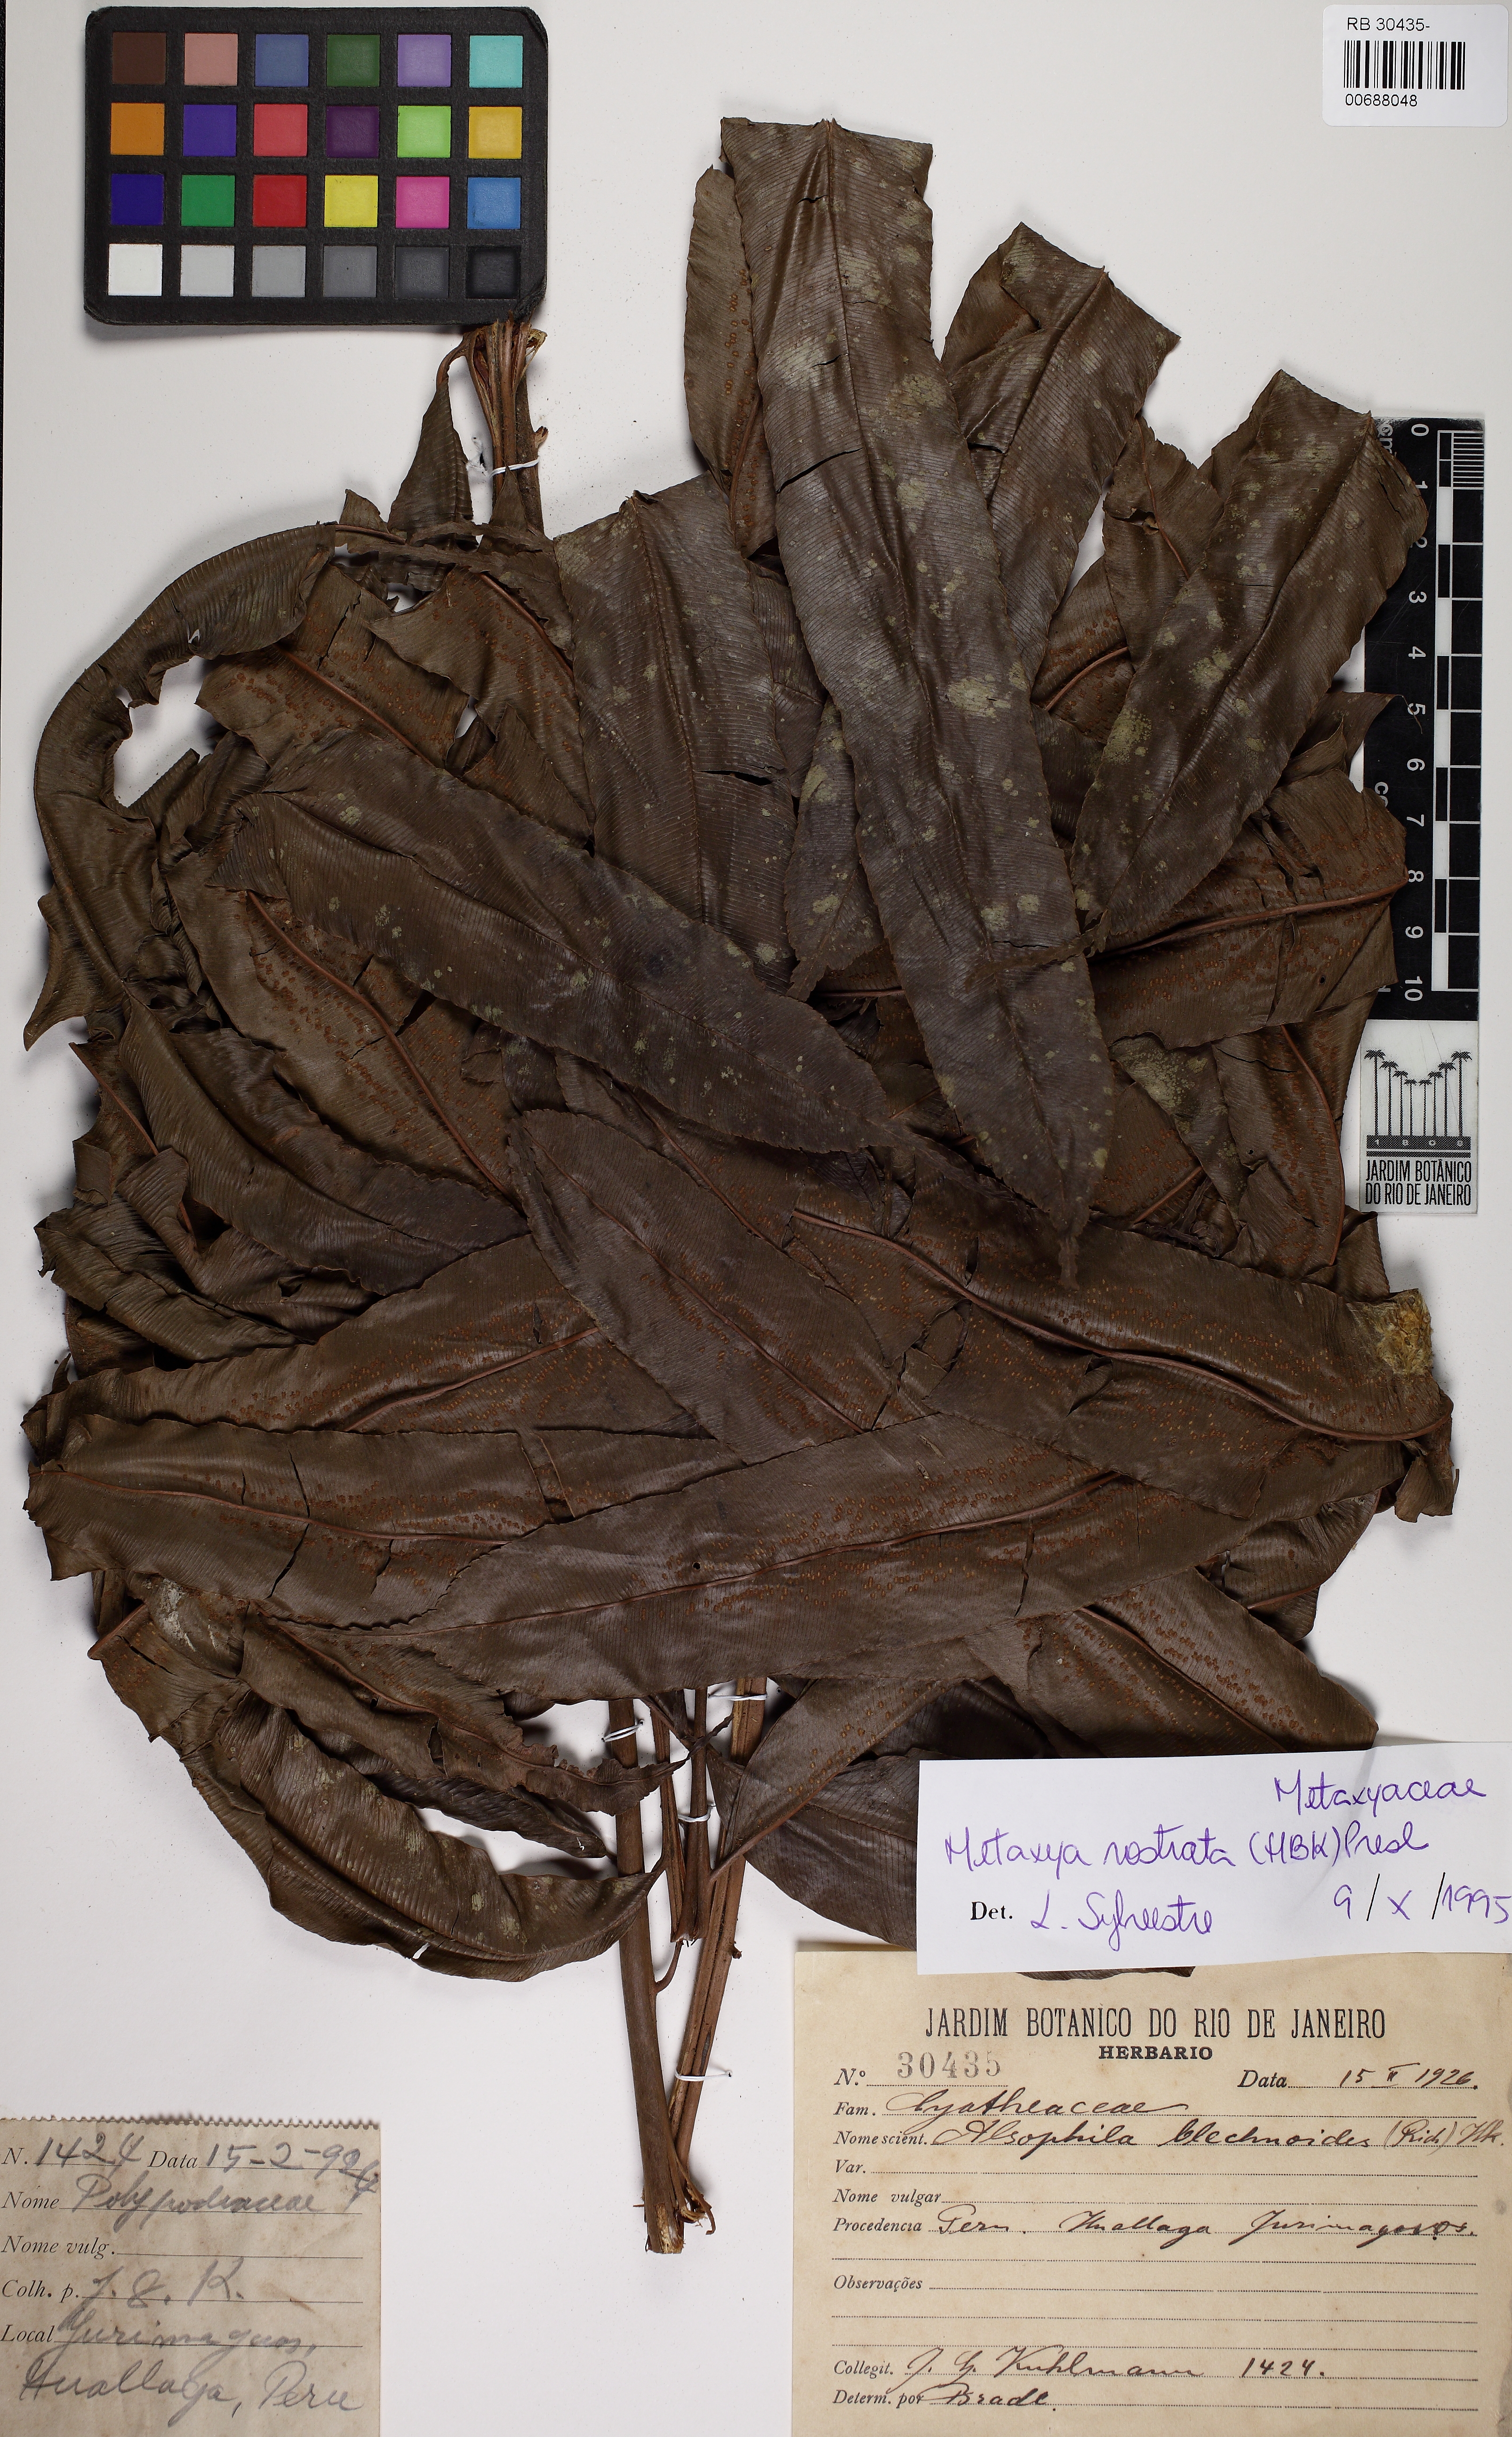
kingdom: Plantae
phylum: Tracheophyta
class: Polypodiopsida
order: Cyatheales
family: Metaxyaceae
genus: Metaxya
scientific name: Metaxya rostrata
